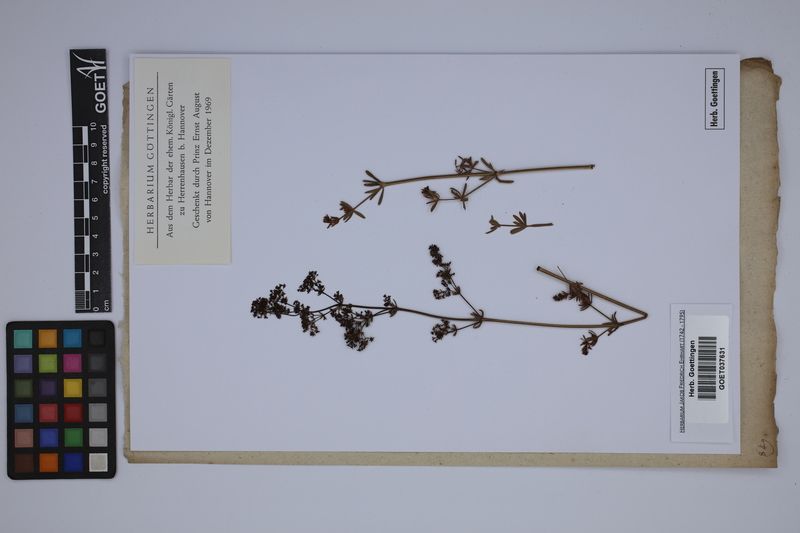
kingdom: Plantae
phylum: Tracheophyta
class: Magnoliopsida
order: Gentianales
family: Rubiaceae
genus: Galium
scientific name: Galium
